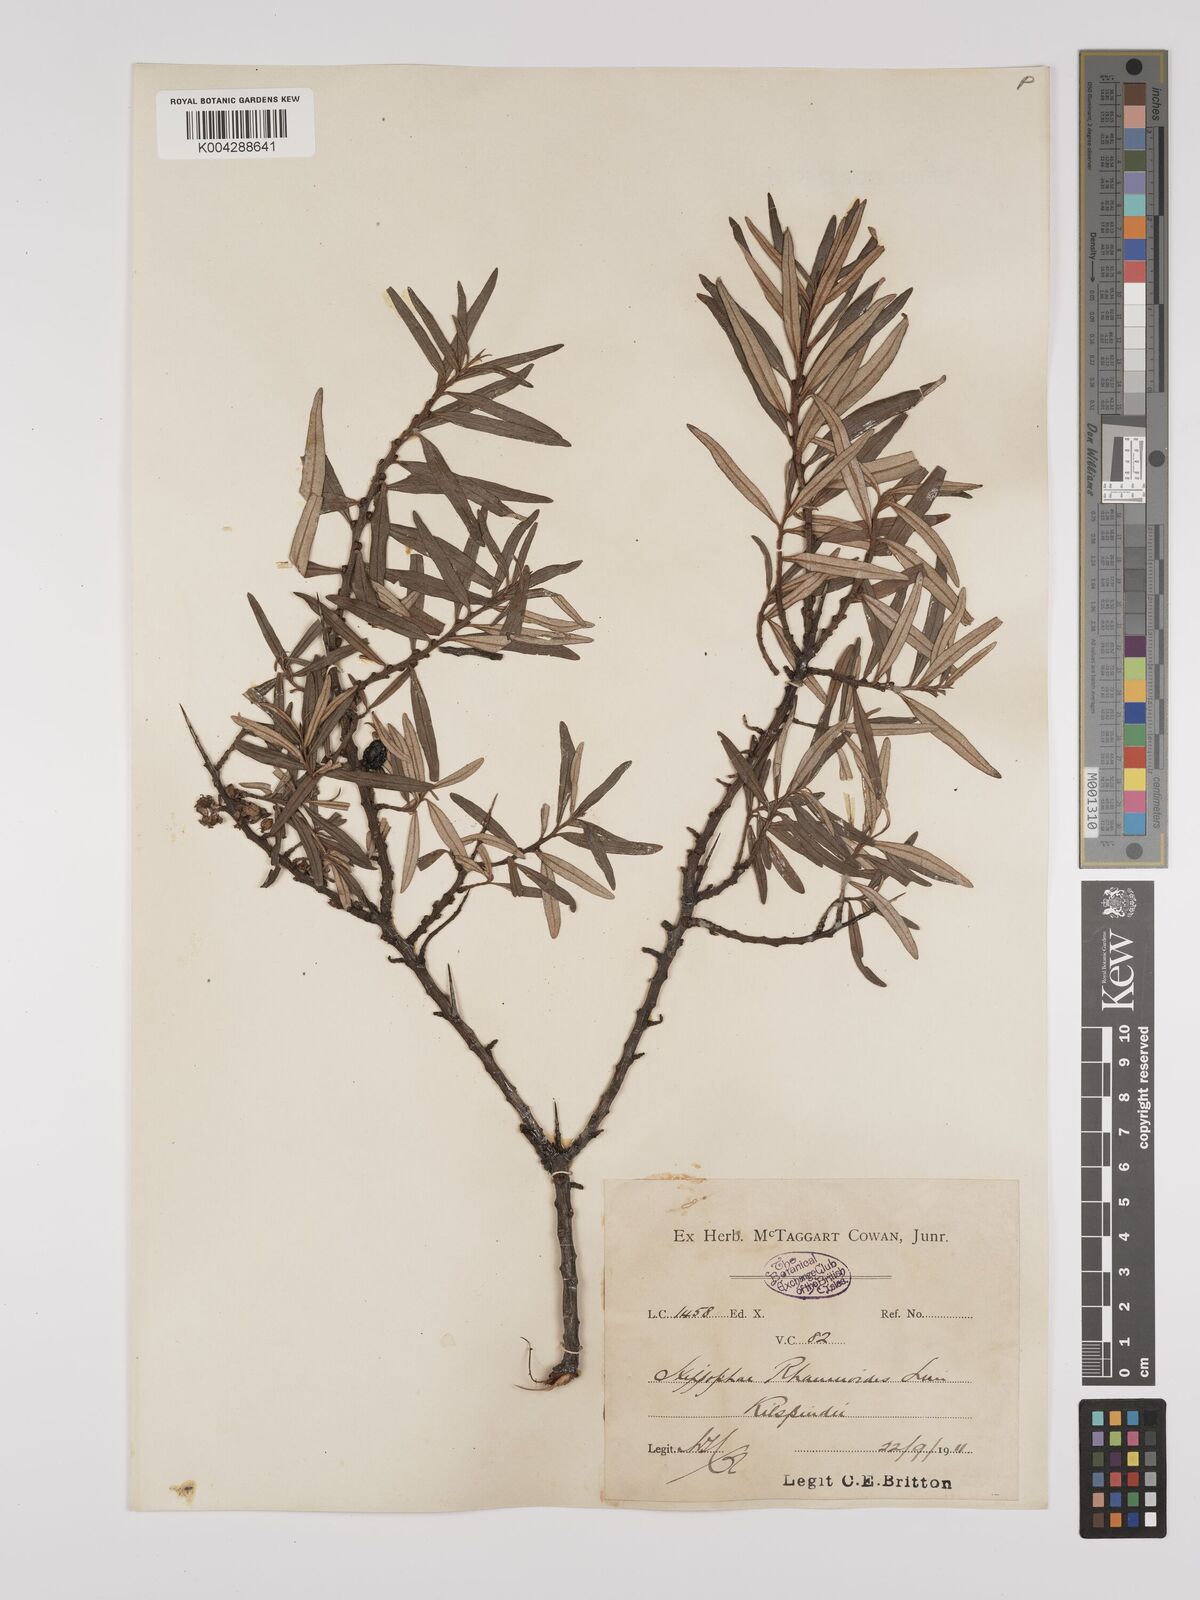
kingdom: Plantae
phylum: Tracheophyta
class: Magnoliopsida
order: Rosales
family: Elaeagnaceae
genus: Hippophae
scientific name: Hippophae rhamnoides
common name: Sea-buckthorn
